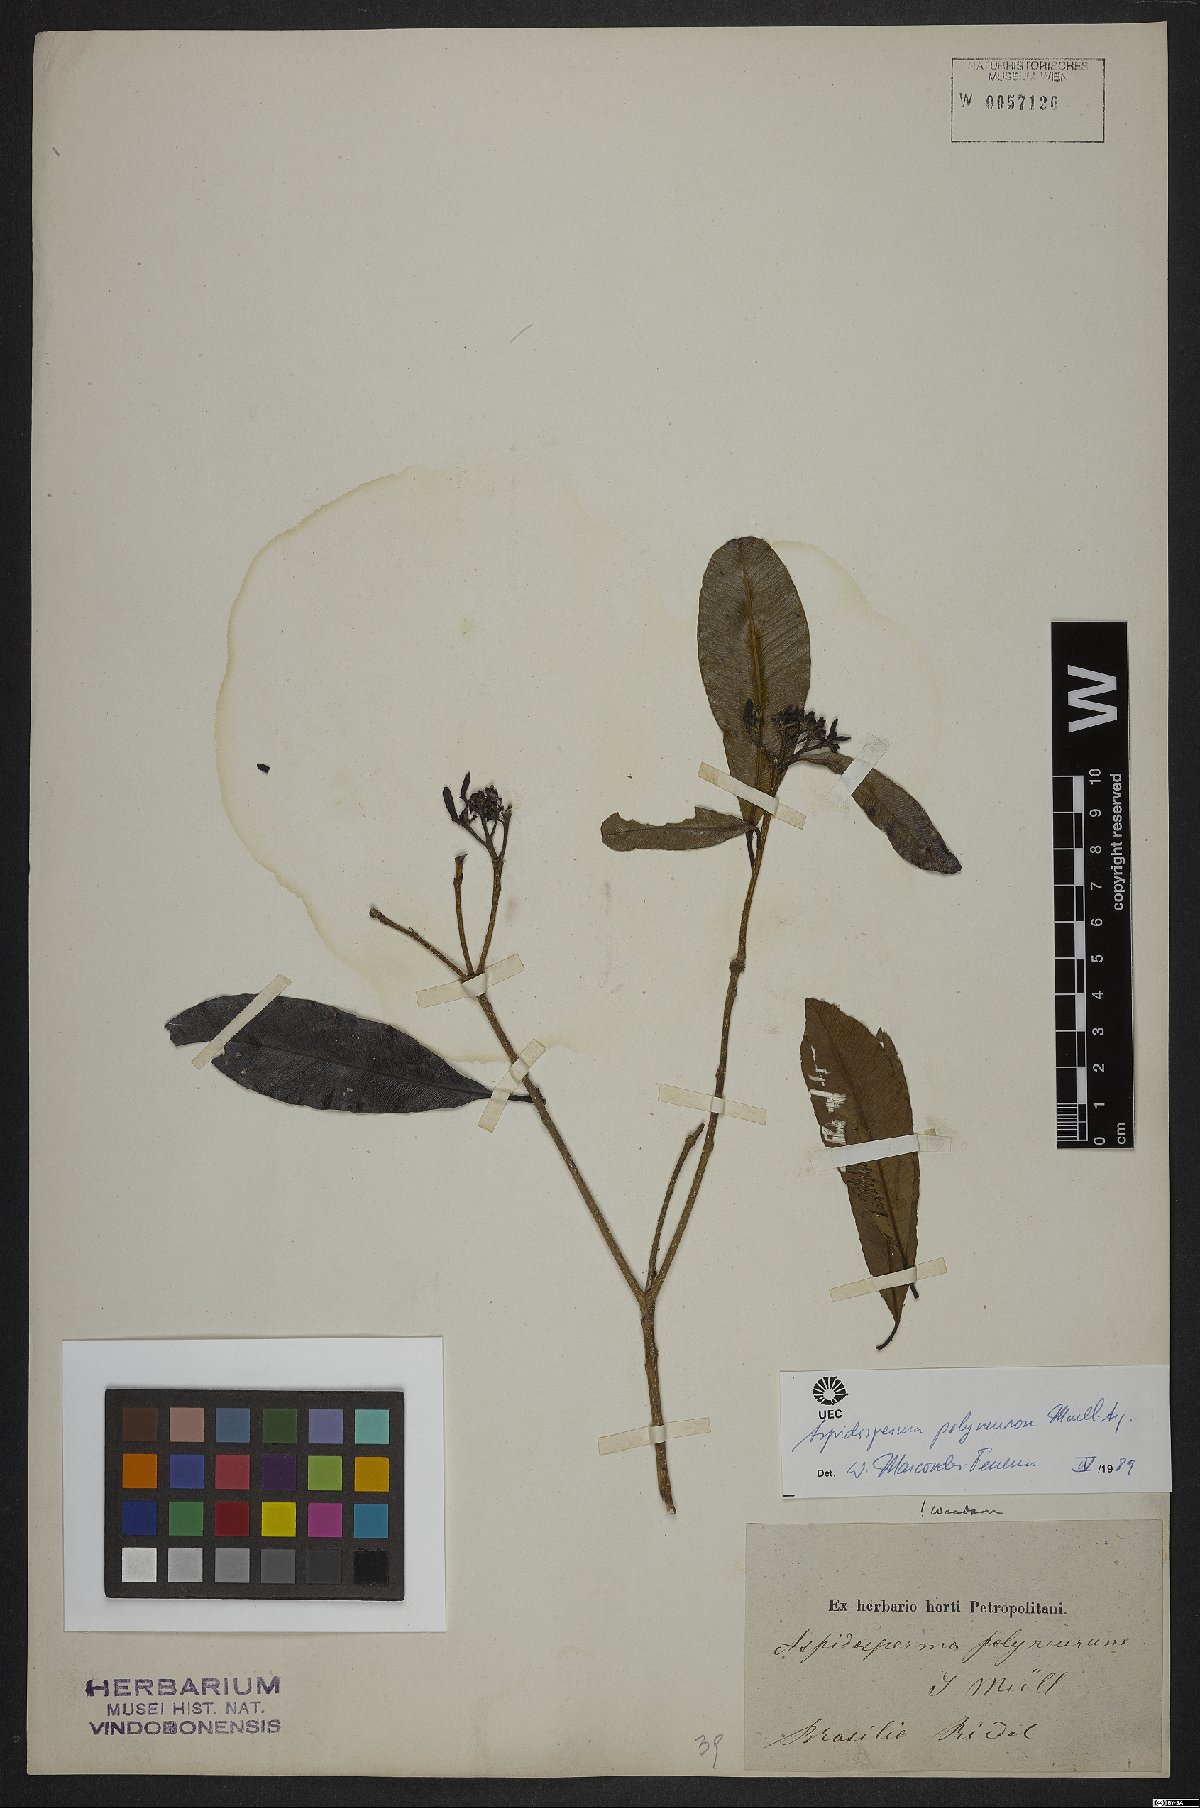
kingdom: Plantae
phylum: Tracheophyta
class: Magnoliopsida
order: Gentianales
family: Apocynaceae
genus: Aspidosperma
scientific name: Aspidosperma polyneuron
